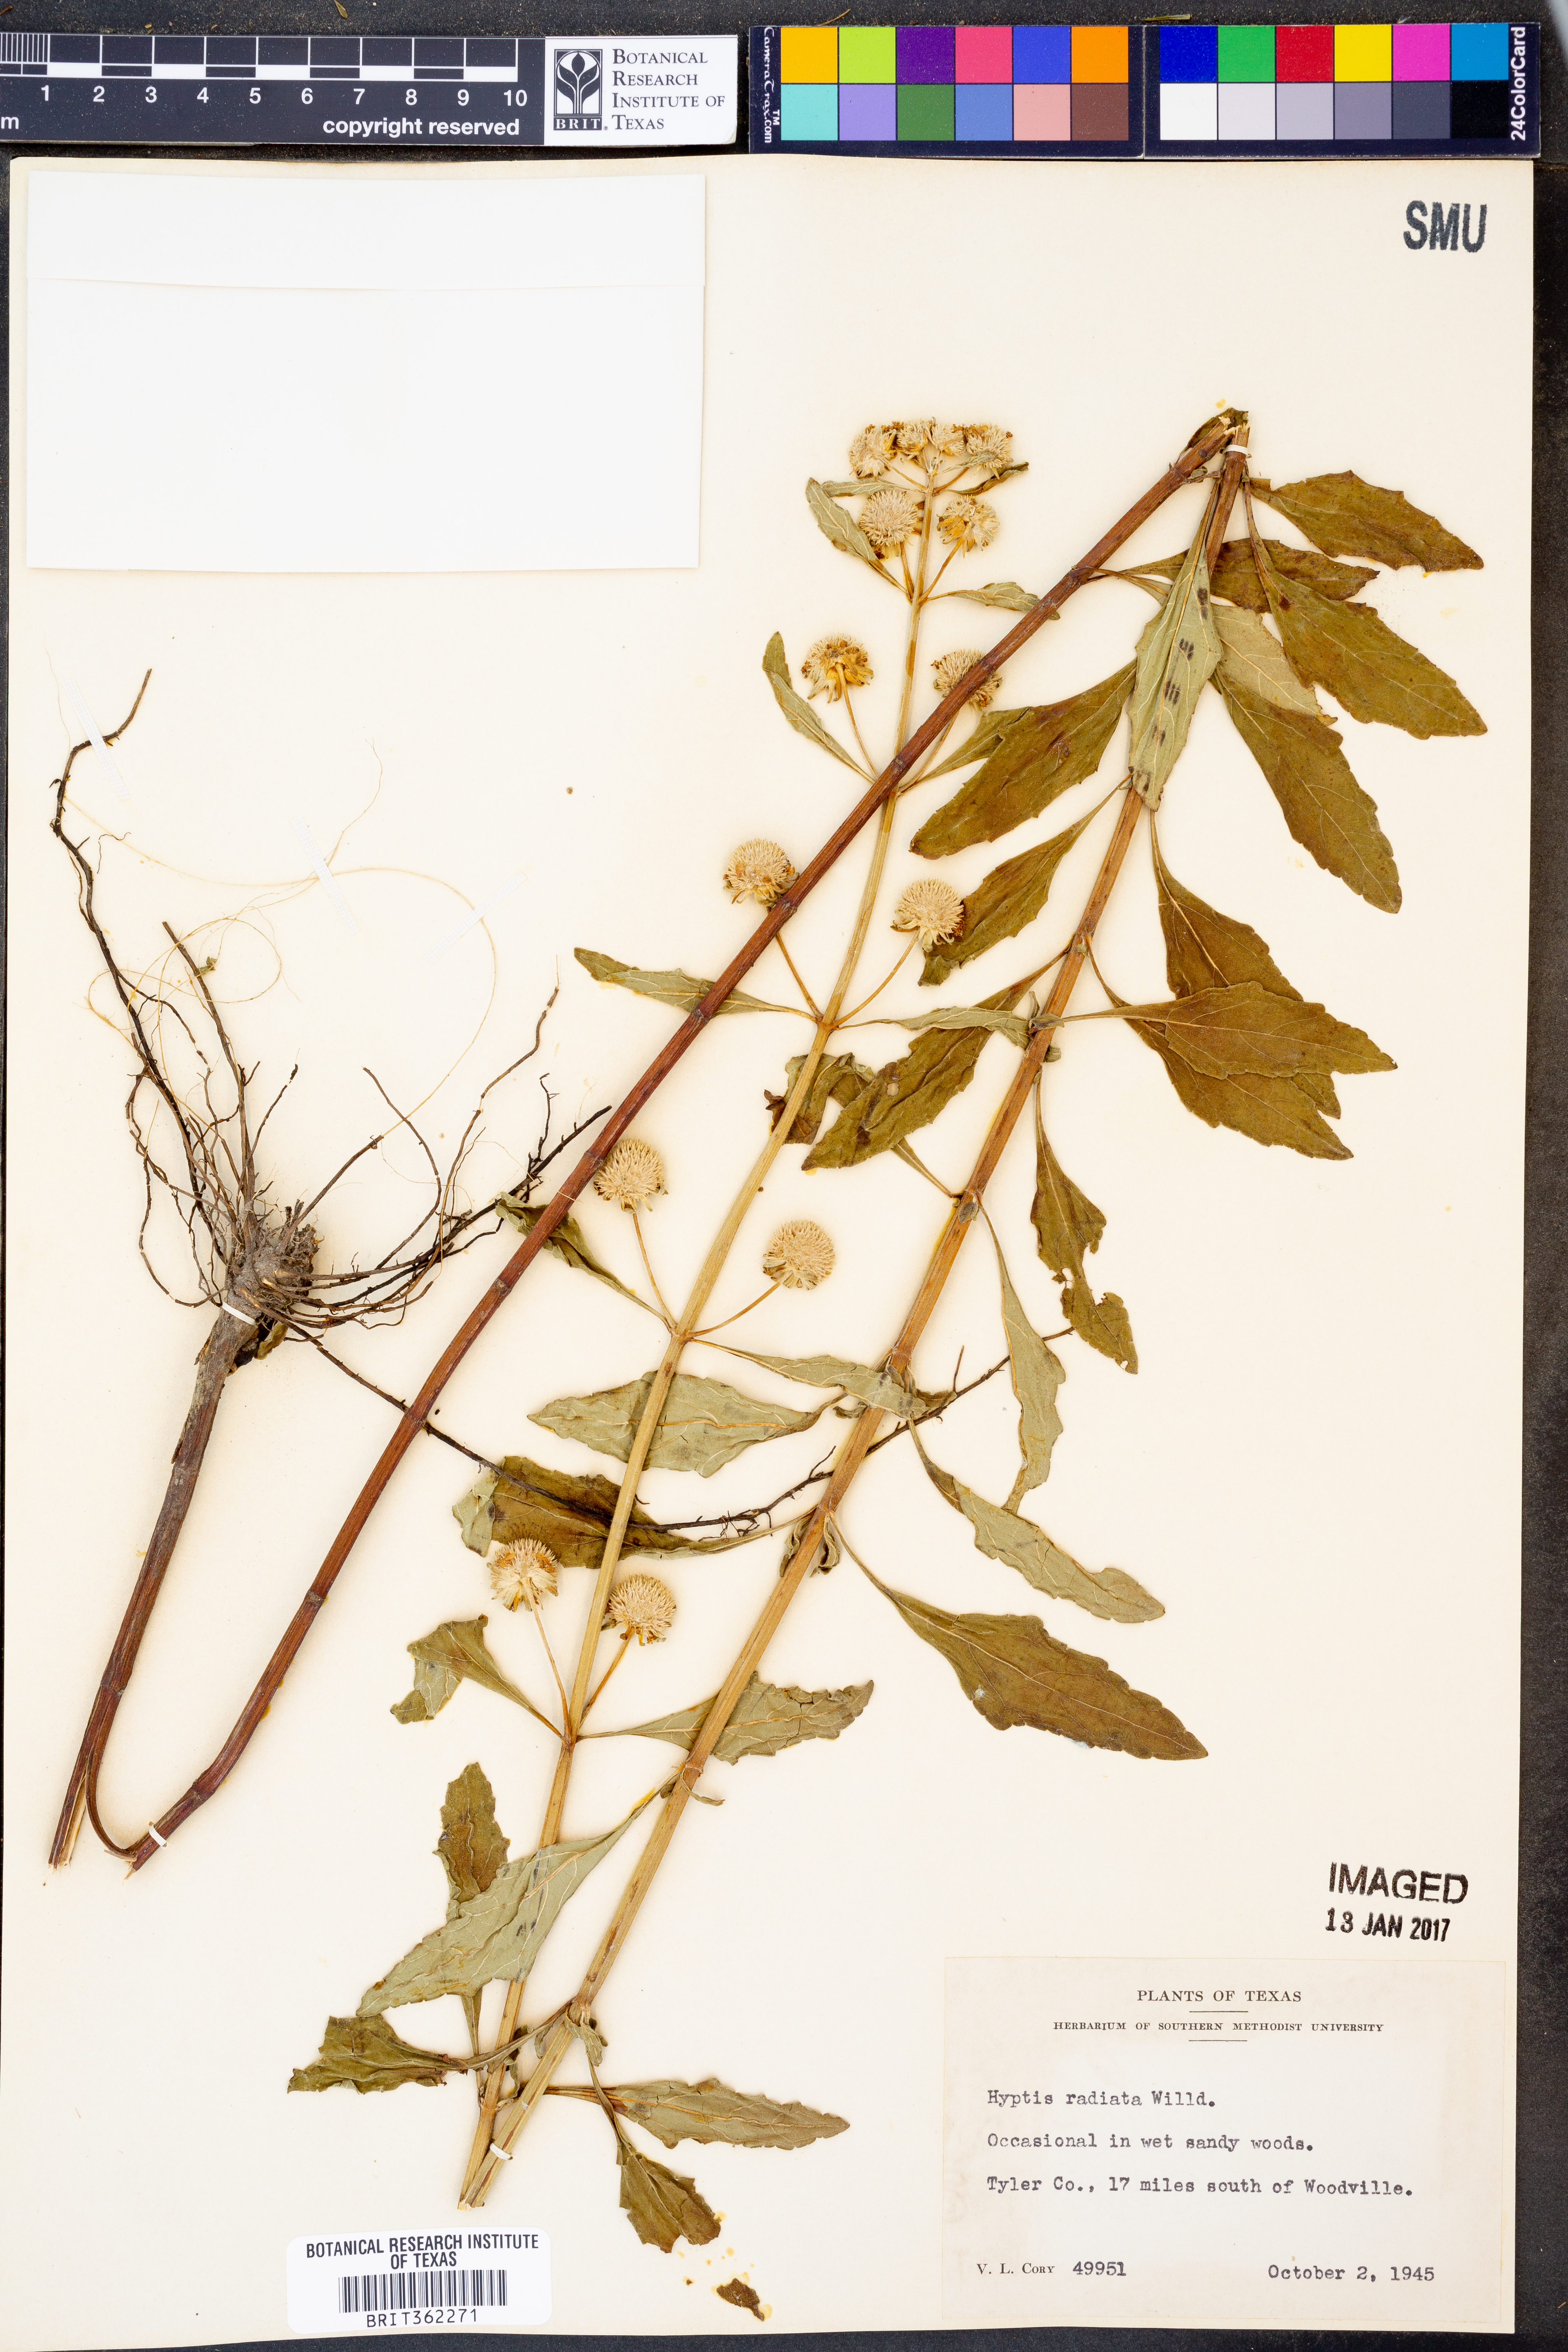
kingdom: Plantae
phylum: Tracheophyta
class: Magnoliopsida
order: Lamiales
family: Lamiaceae
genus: Hyptis
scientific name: Hyptis alata
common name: Cluster bush-mint
